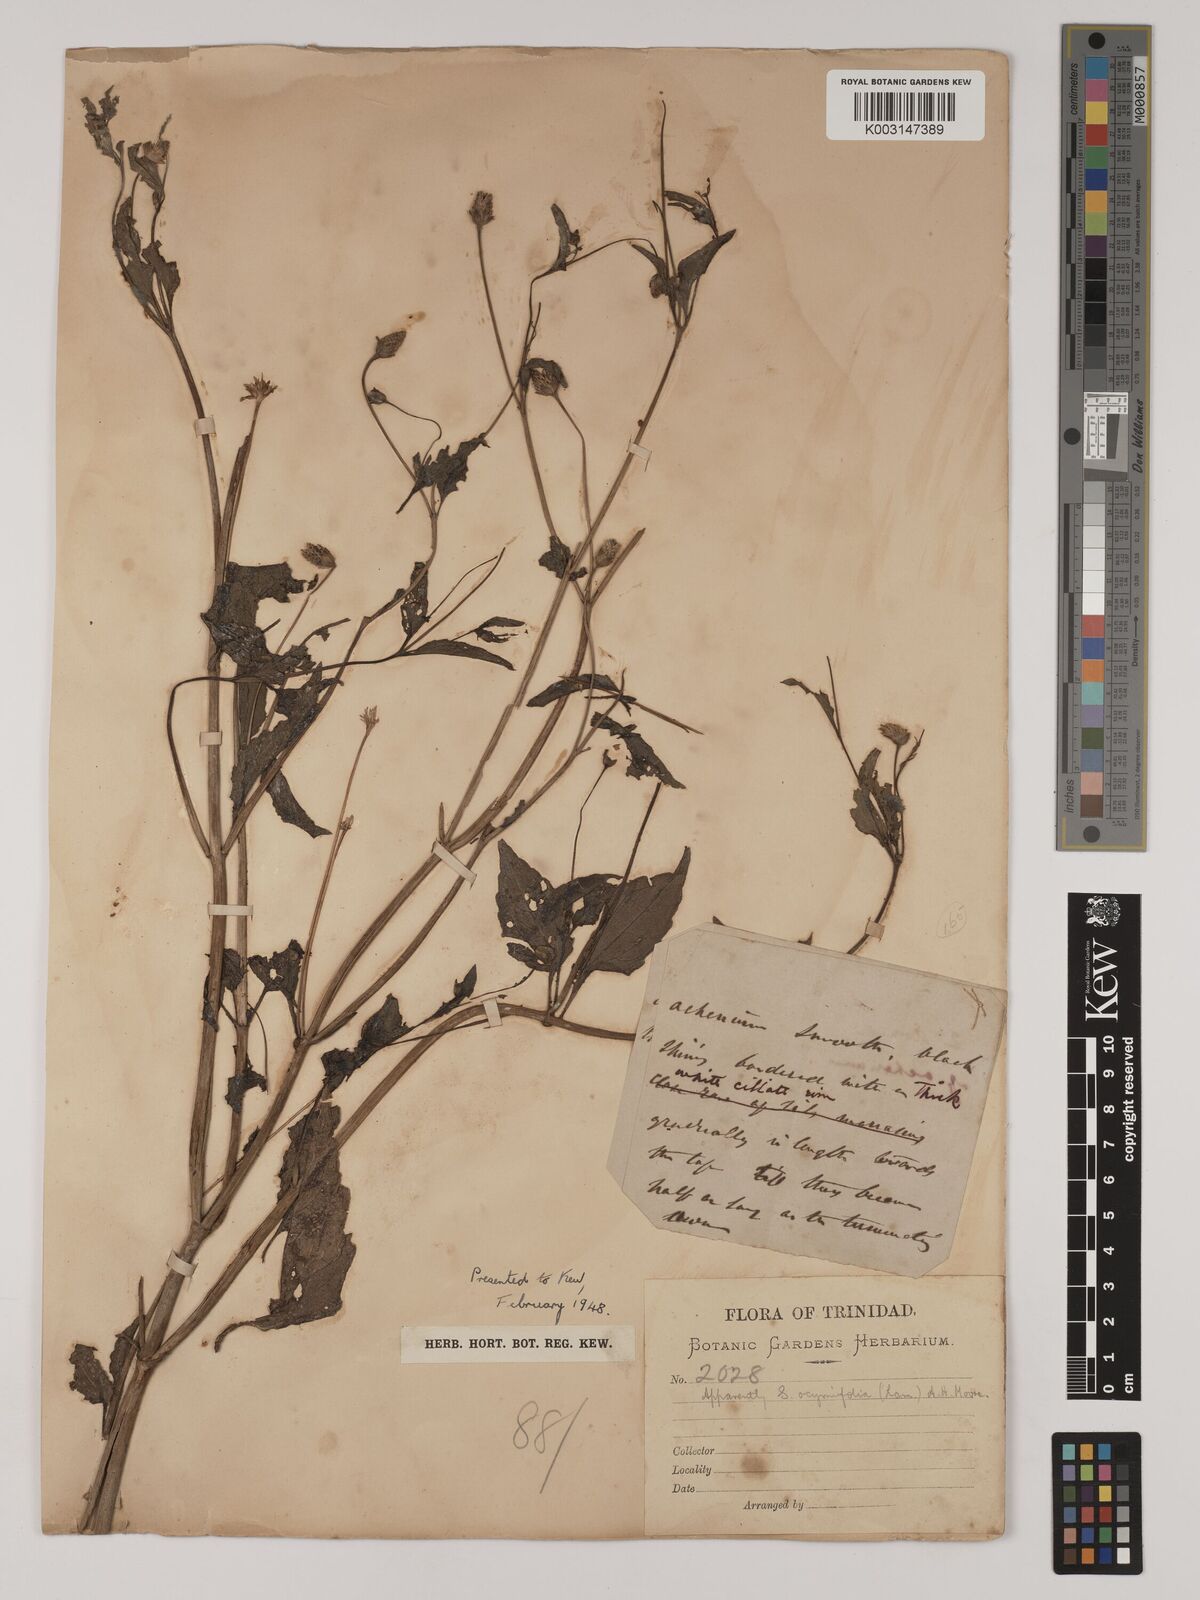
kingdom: Plantae
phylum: Tracheophyta
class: Magnoliopsida
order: Asterales
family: Asteraceae
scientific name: Asteraceae
